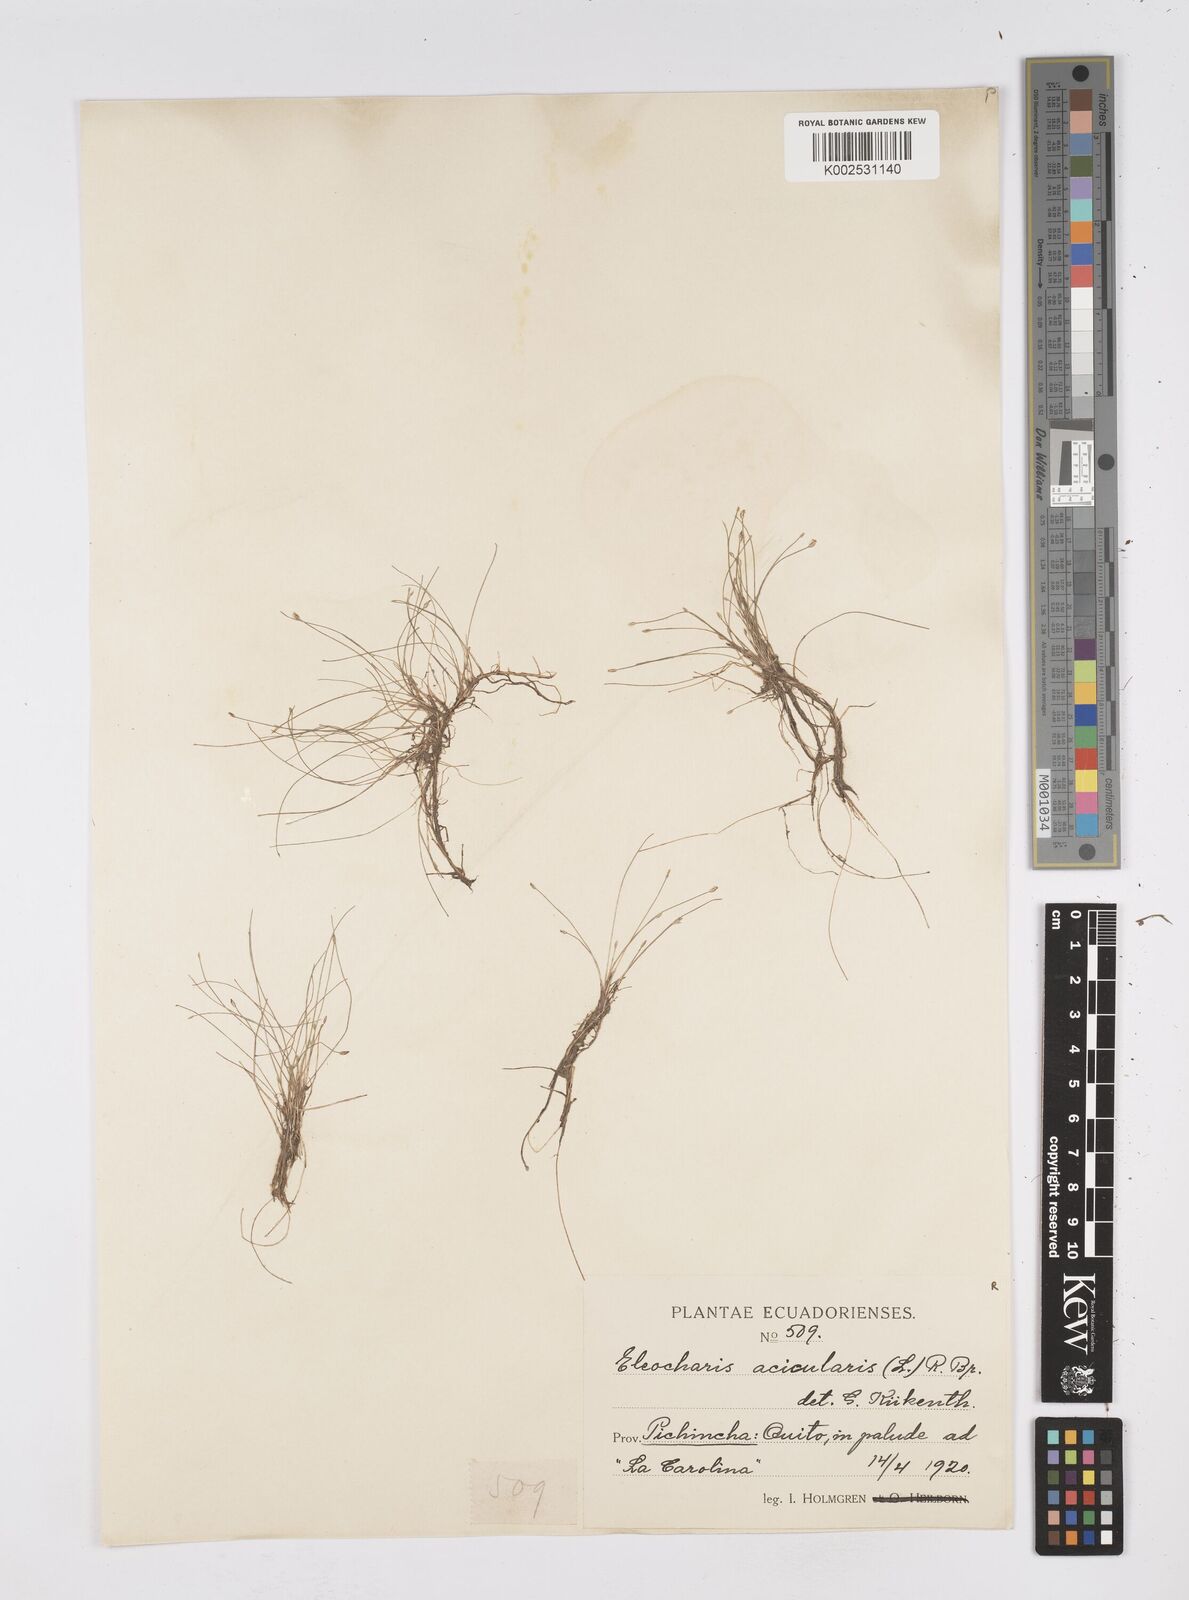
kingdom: Plantae
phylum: Tracheophyta
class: Liliopsida
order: Poales
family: Cyperaceae
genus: Eleocharis
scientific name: Eleocharis acicularis
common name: Needle spike-rush
